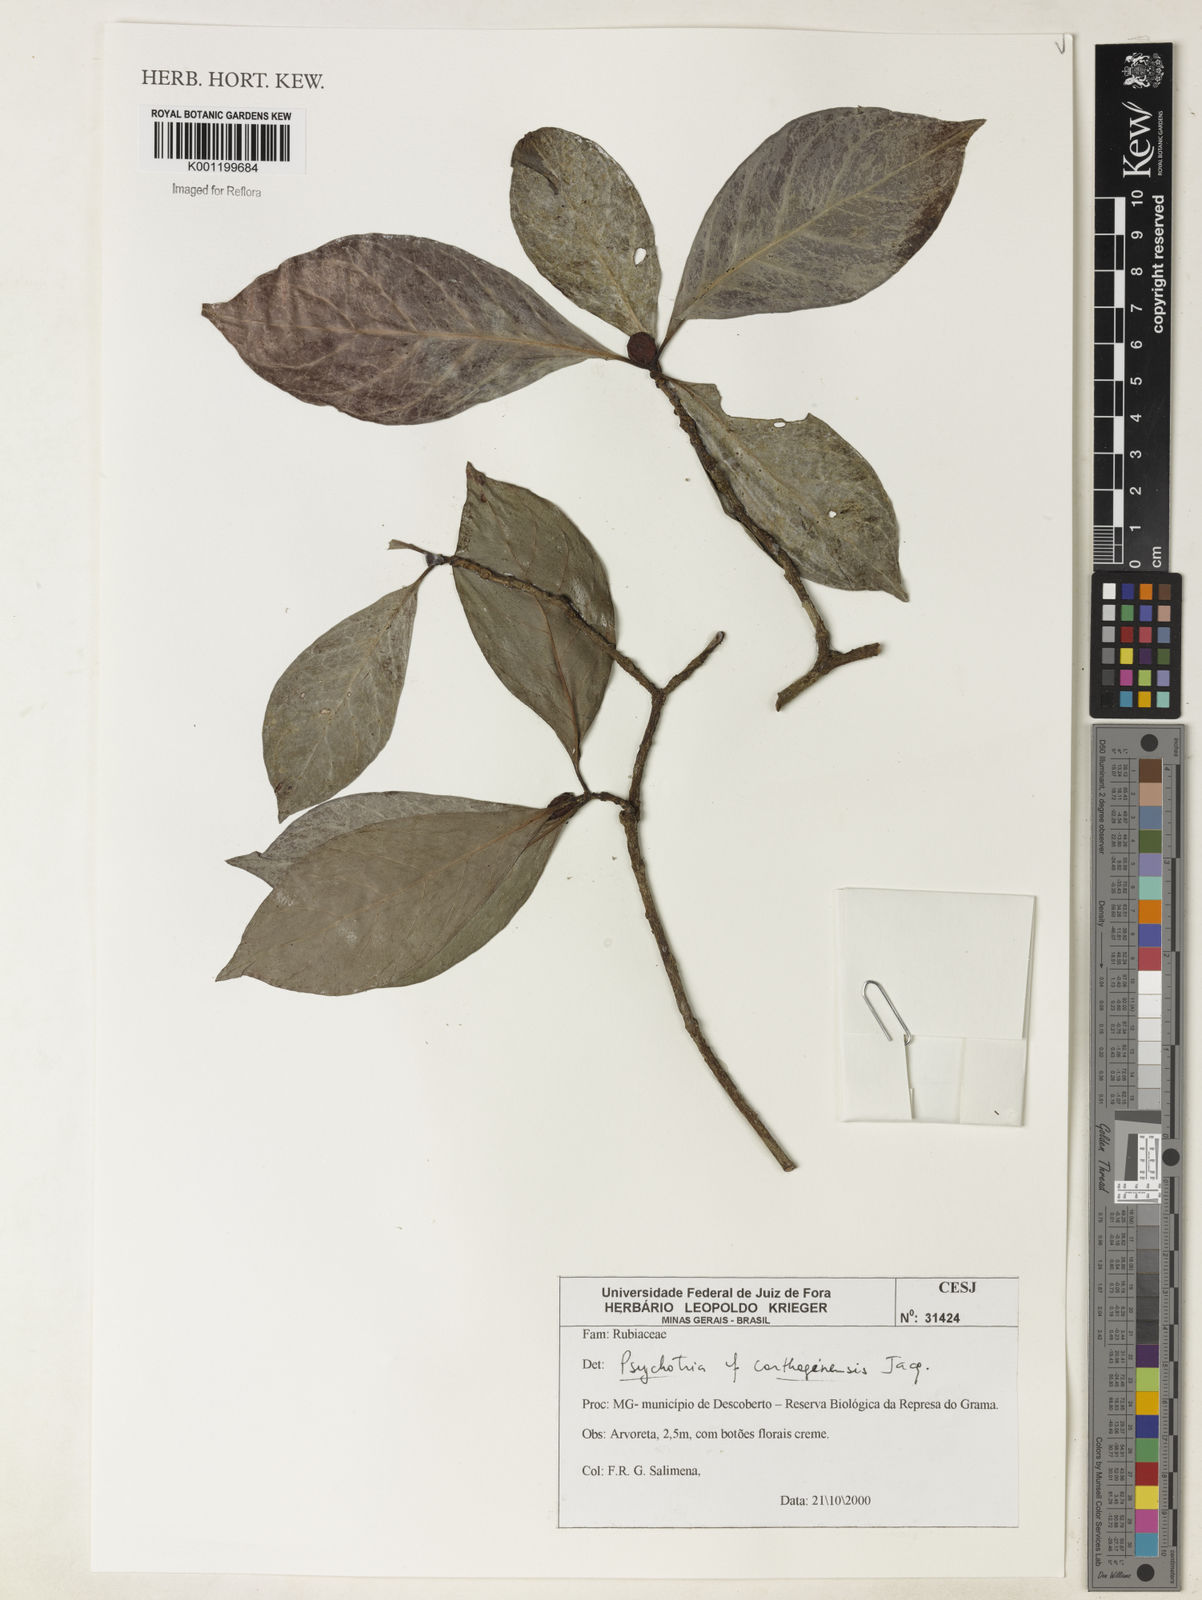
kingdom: Plantae
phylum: Tracheophyta
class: Magnoliopsida
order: Gentianales
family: Rubiaceae
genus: Psychotria
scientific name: Psychotria carthagenensis
